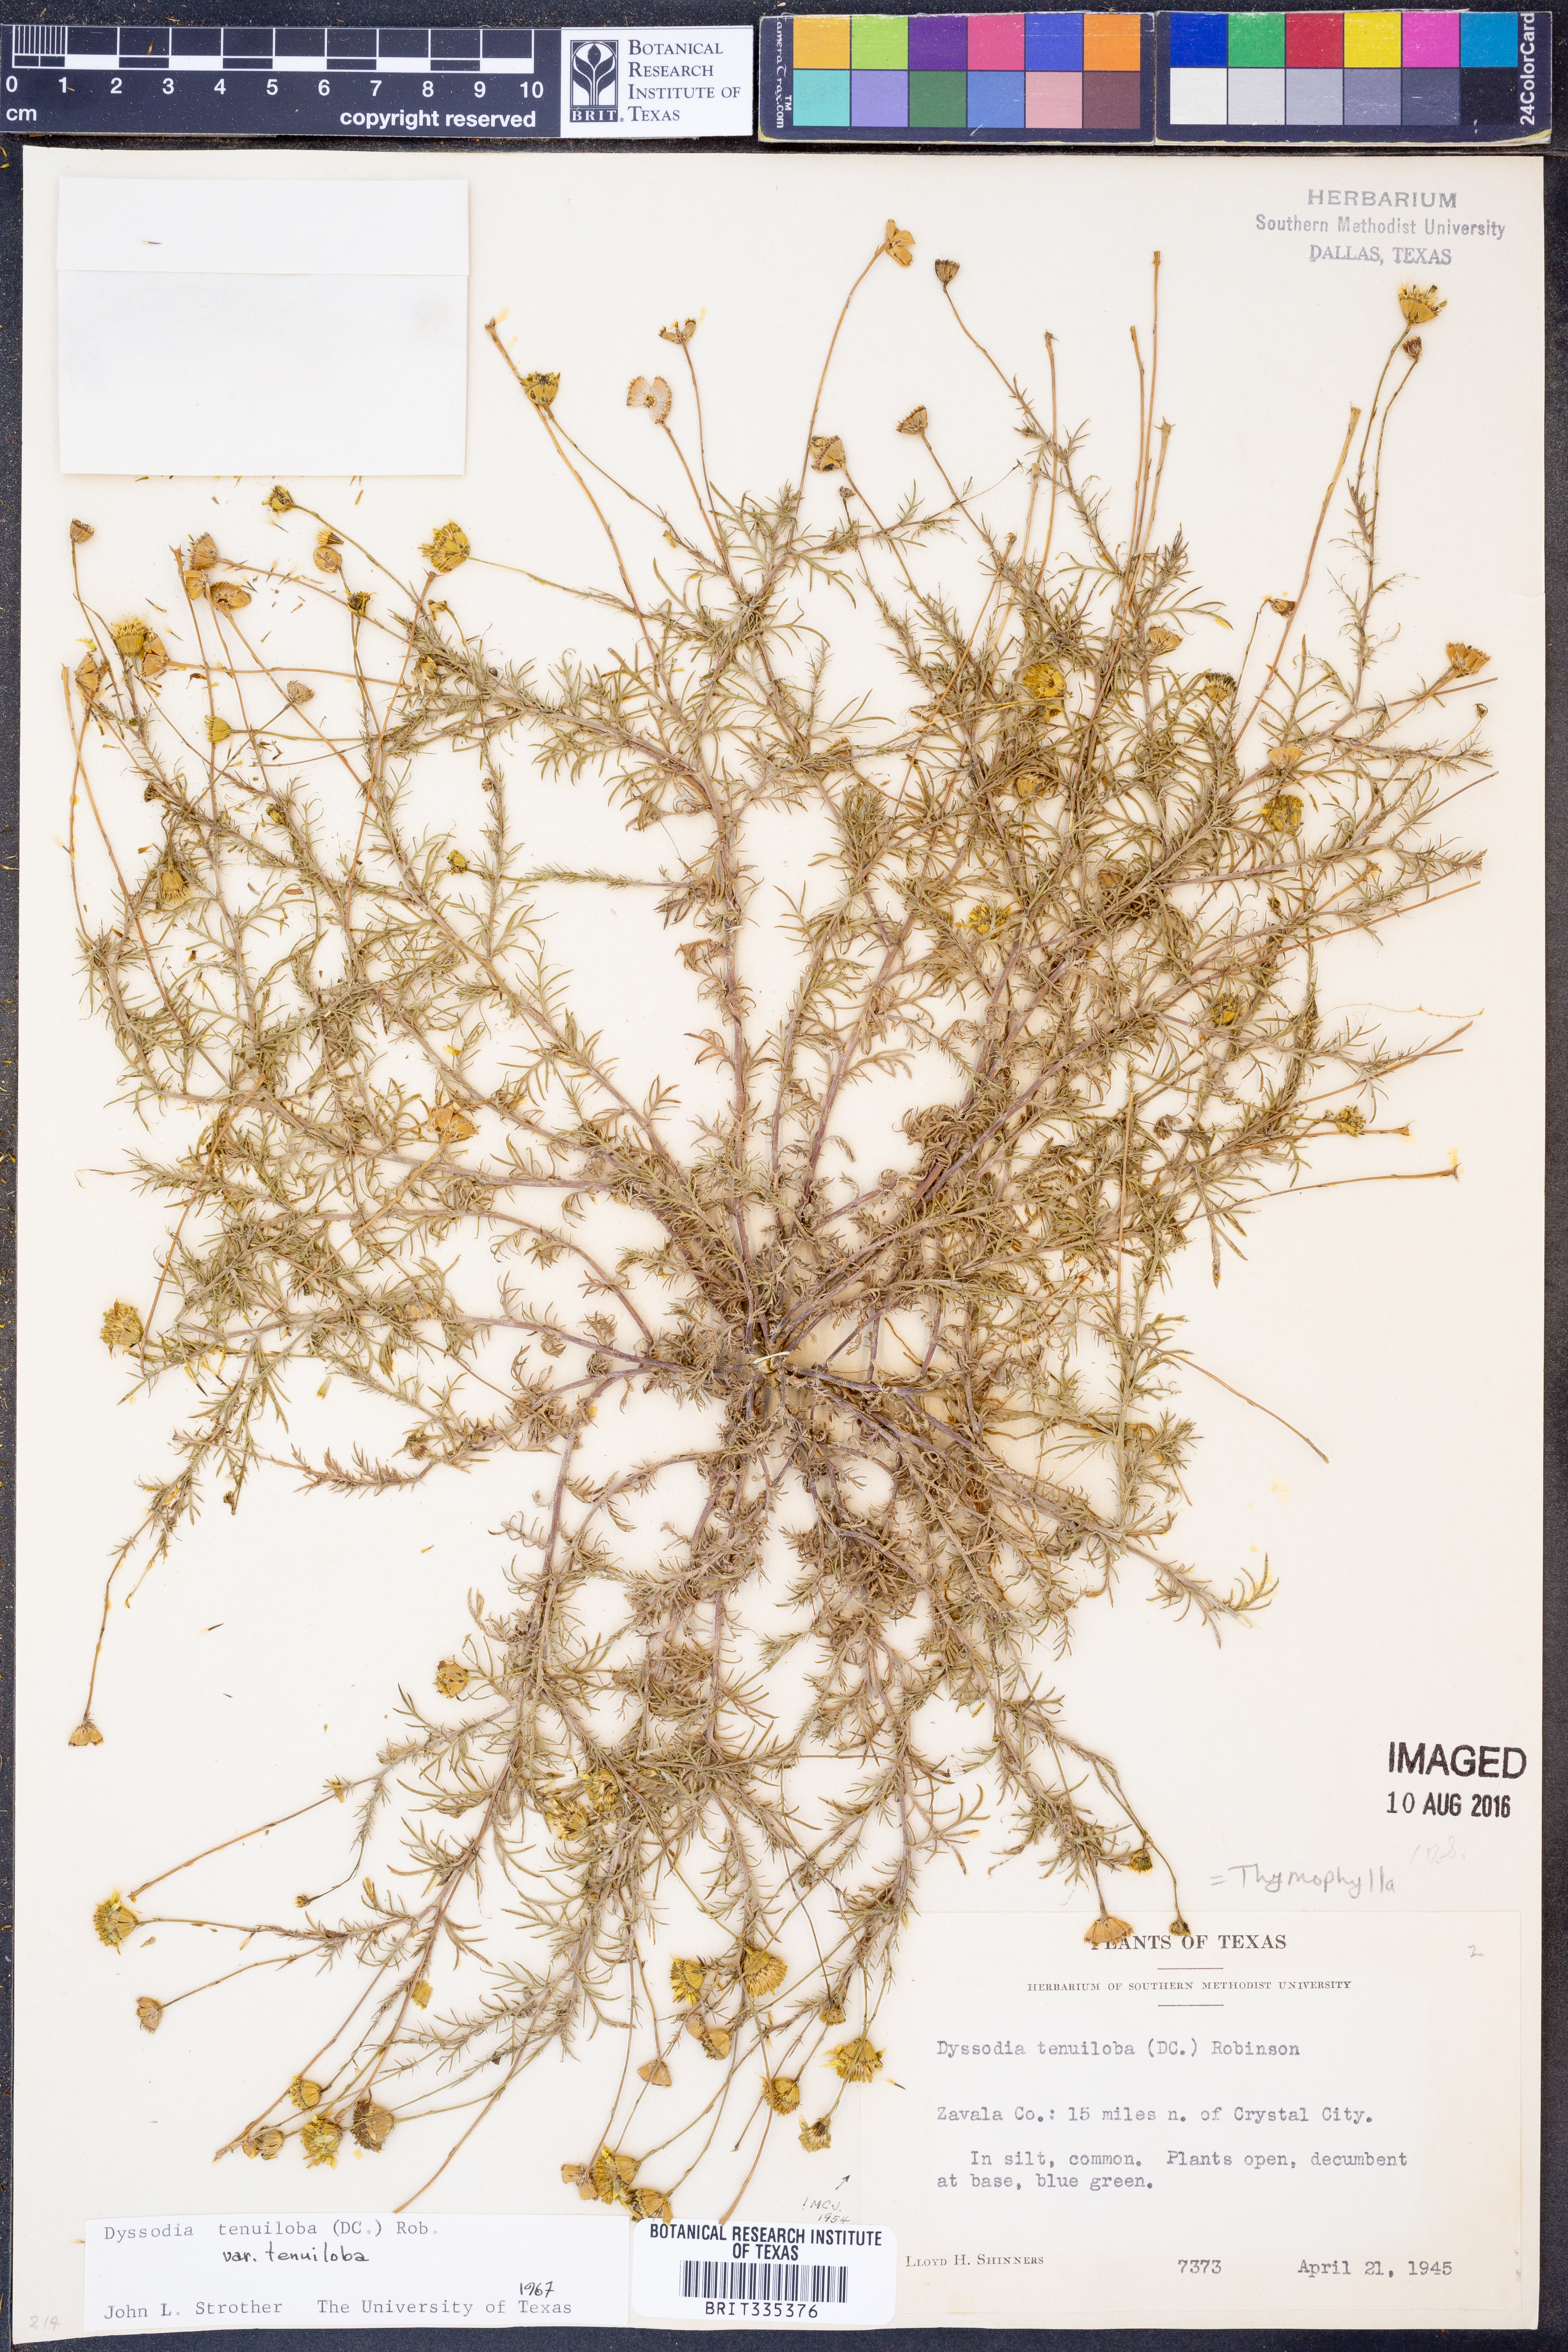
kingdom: Plantae
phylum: Tracheophyta
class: Magnoliopsida
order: Asterales
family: Asteraceae
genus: Thymophylla
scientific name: Thymophylla tenuiloba
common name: Dahlberg's daisy
